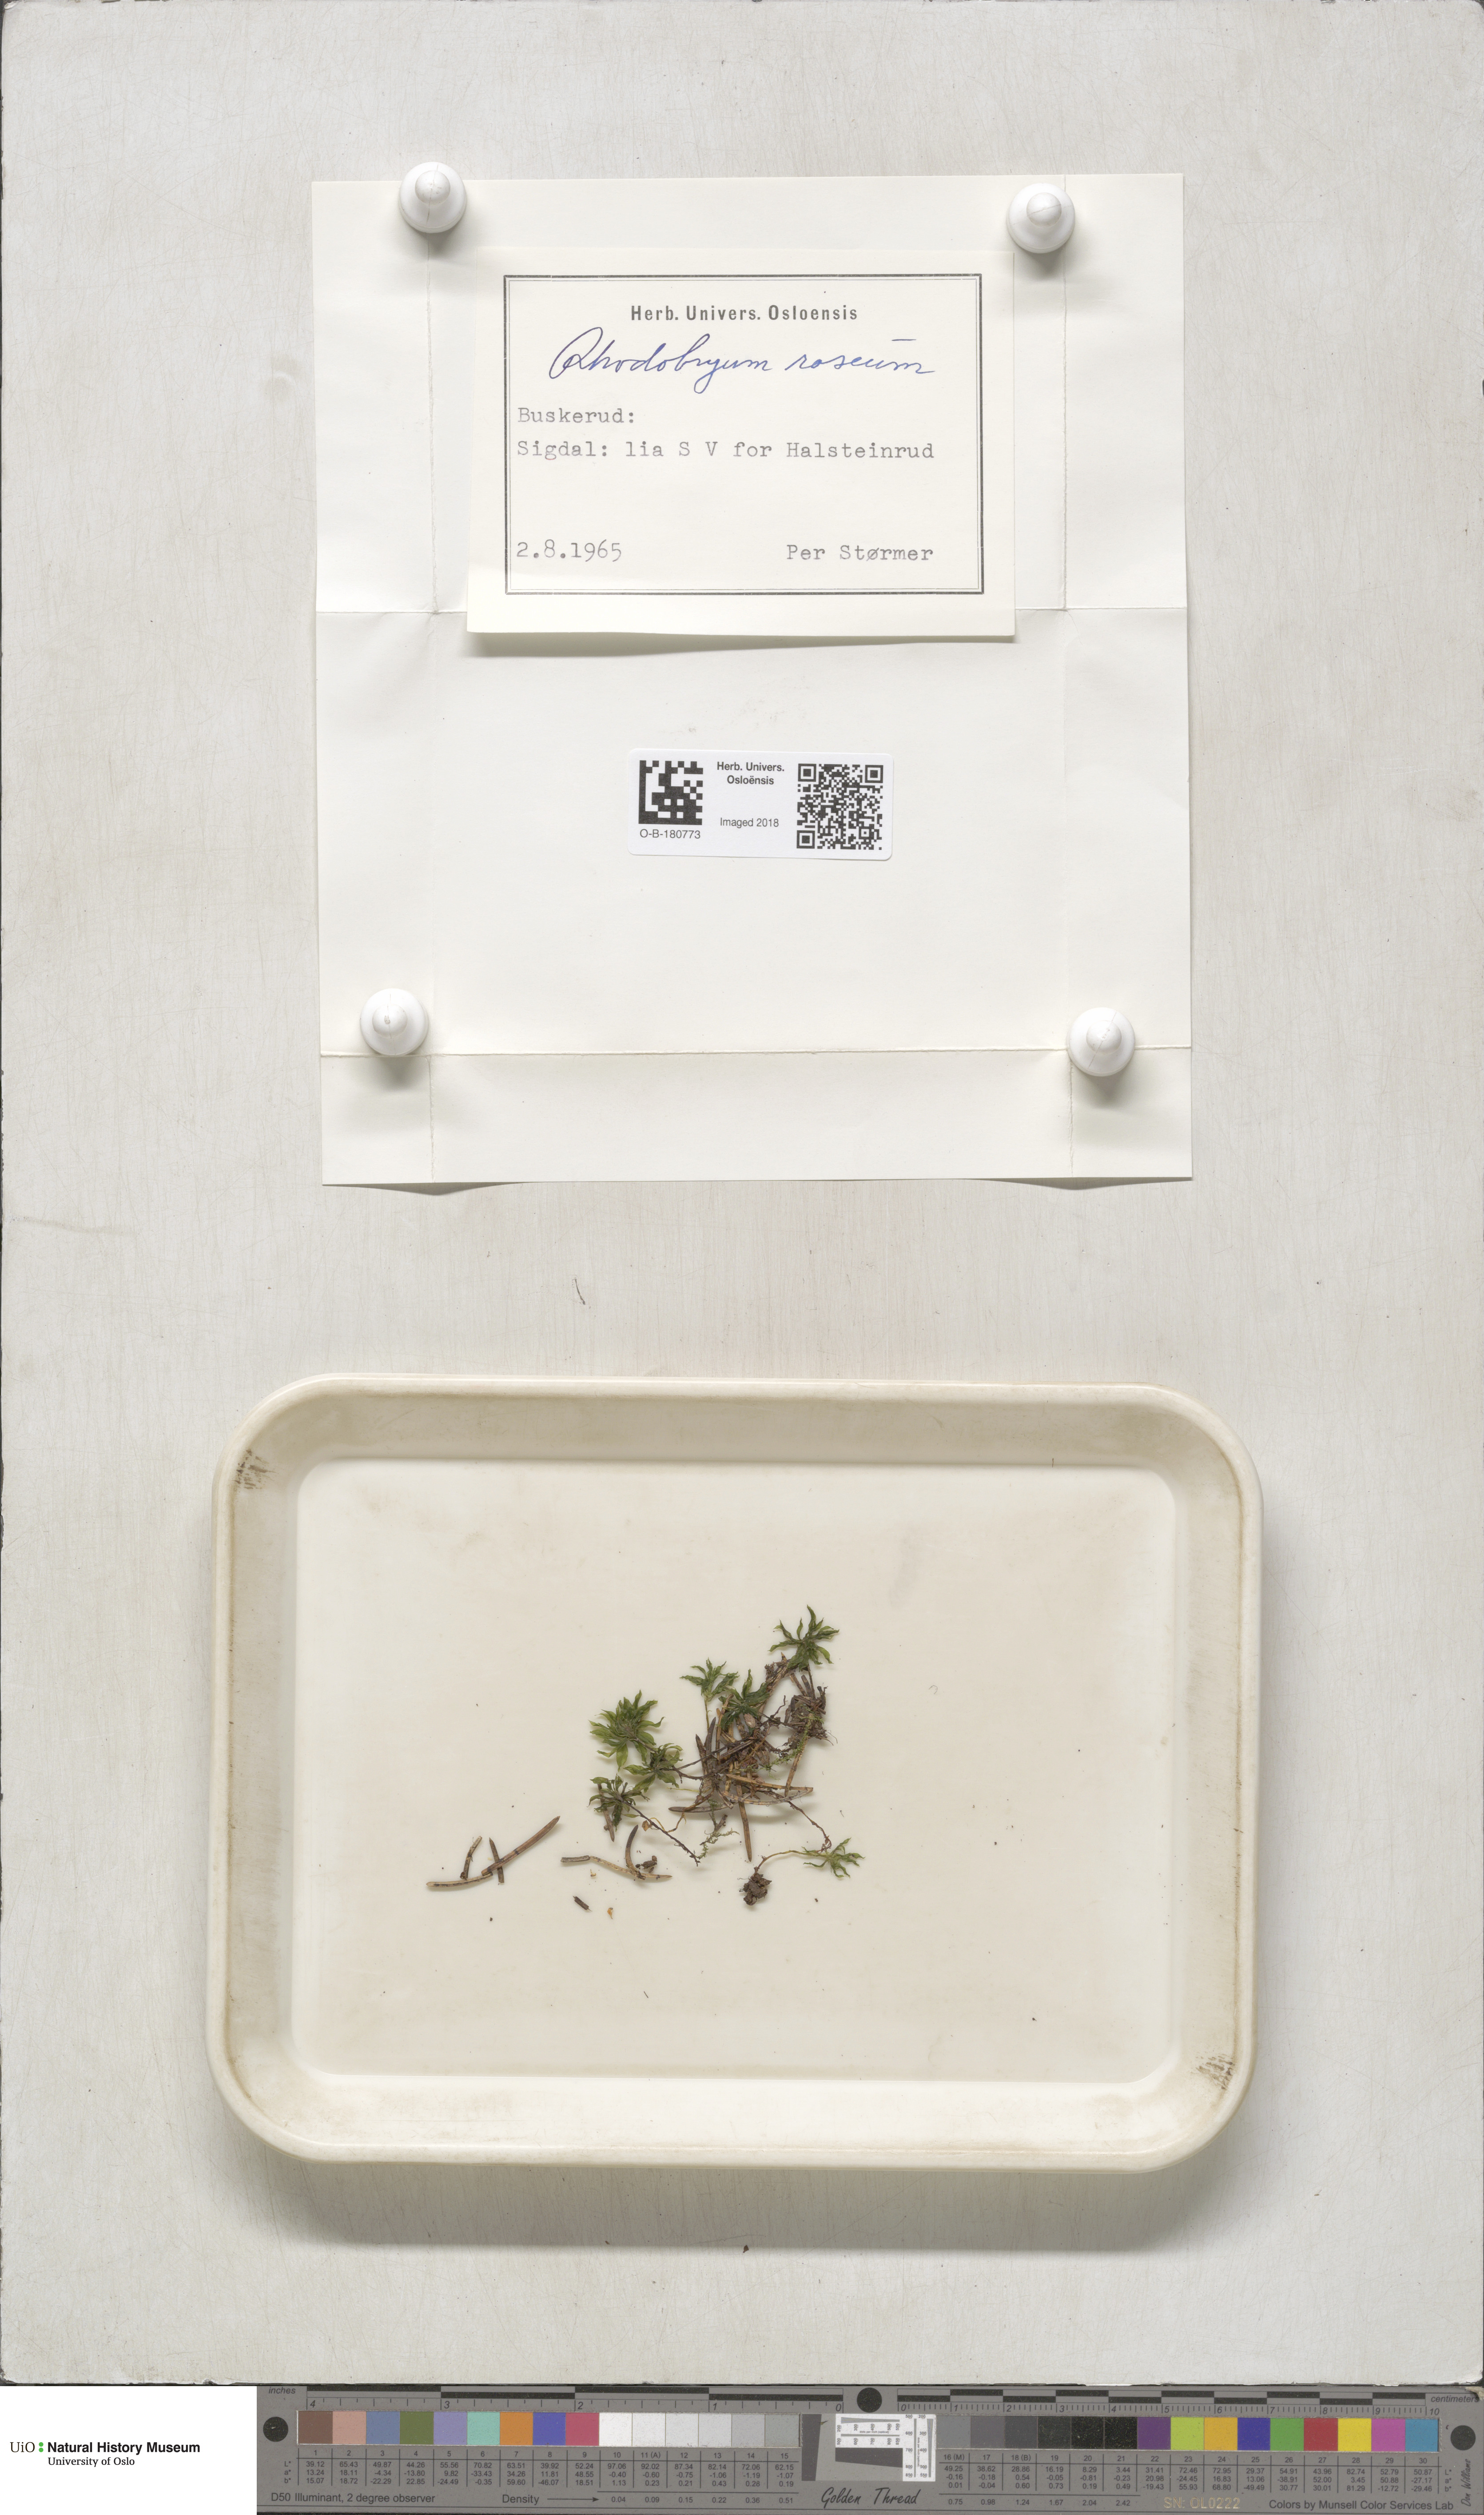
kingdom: Plantae
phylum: Bryophyta
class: Bryopsida
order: Bryales
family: Bryaceae
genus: Rhodobryum
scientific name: Rhodobryum roseum
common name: Rose-moss
